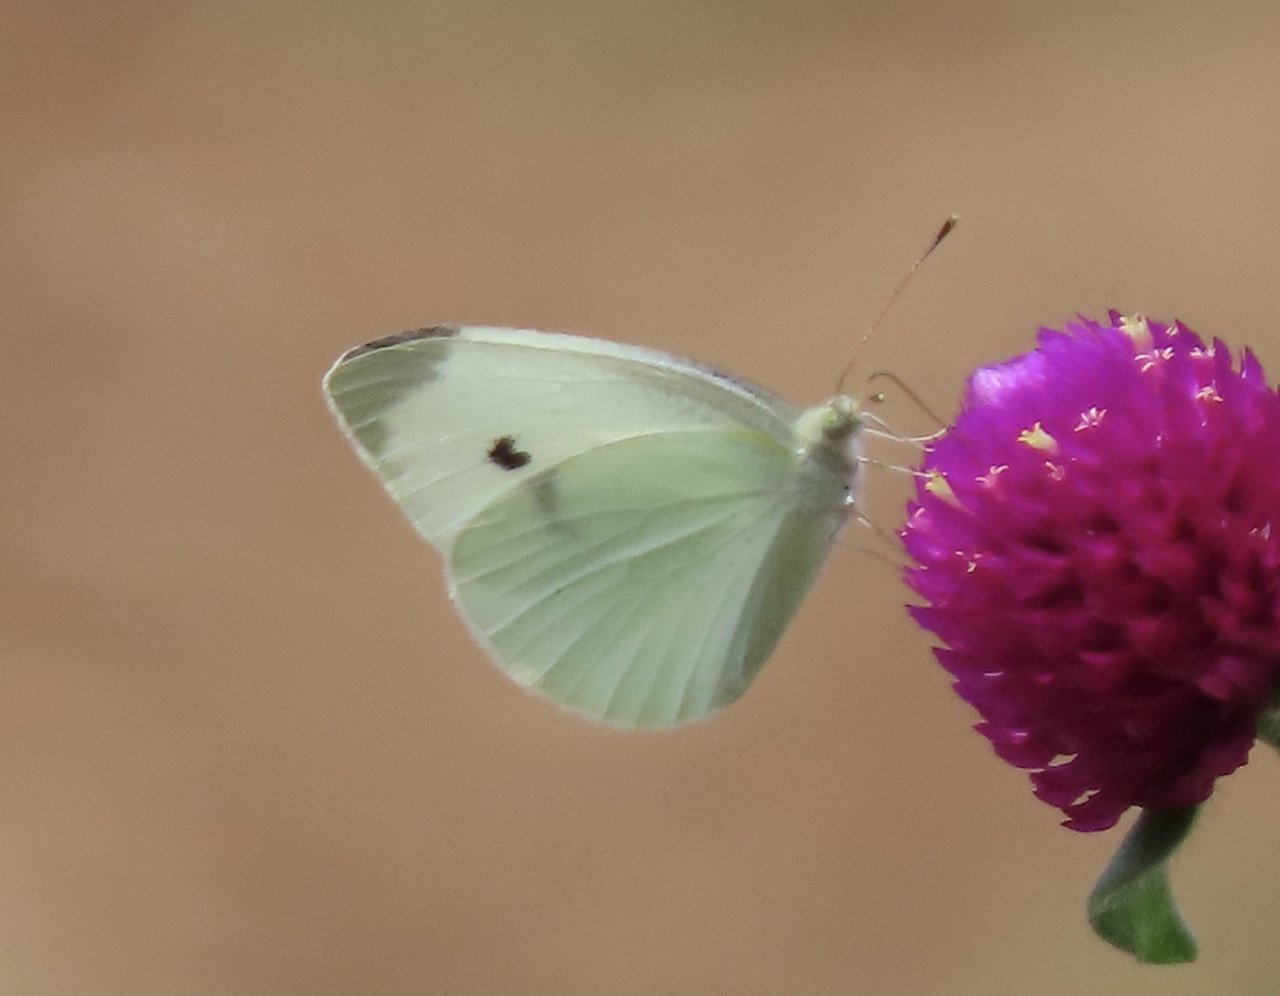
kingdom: Animalia
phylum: Arthropoda
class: Insecta
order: Lepidoptera
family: Pieridae
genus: Pieris
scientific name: Pieris rapae
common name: Cabbage White
